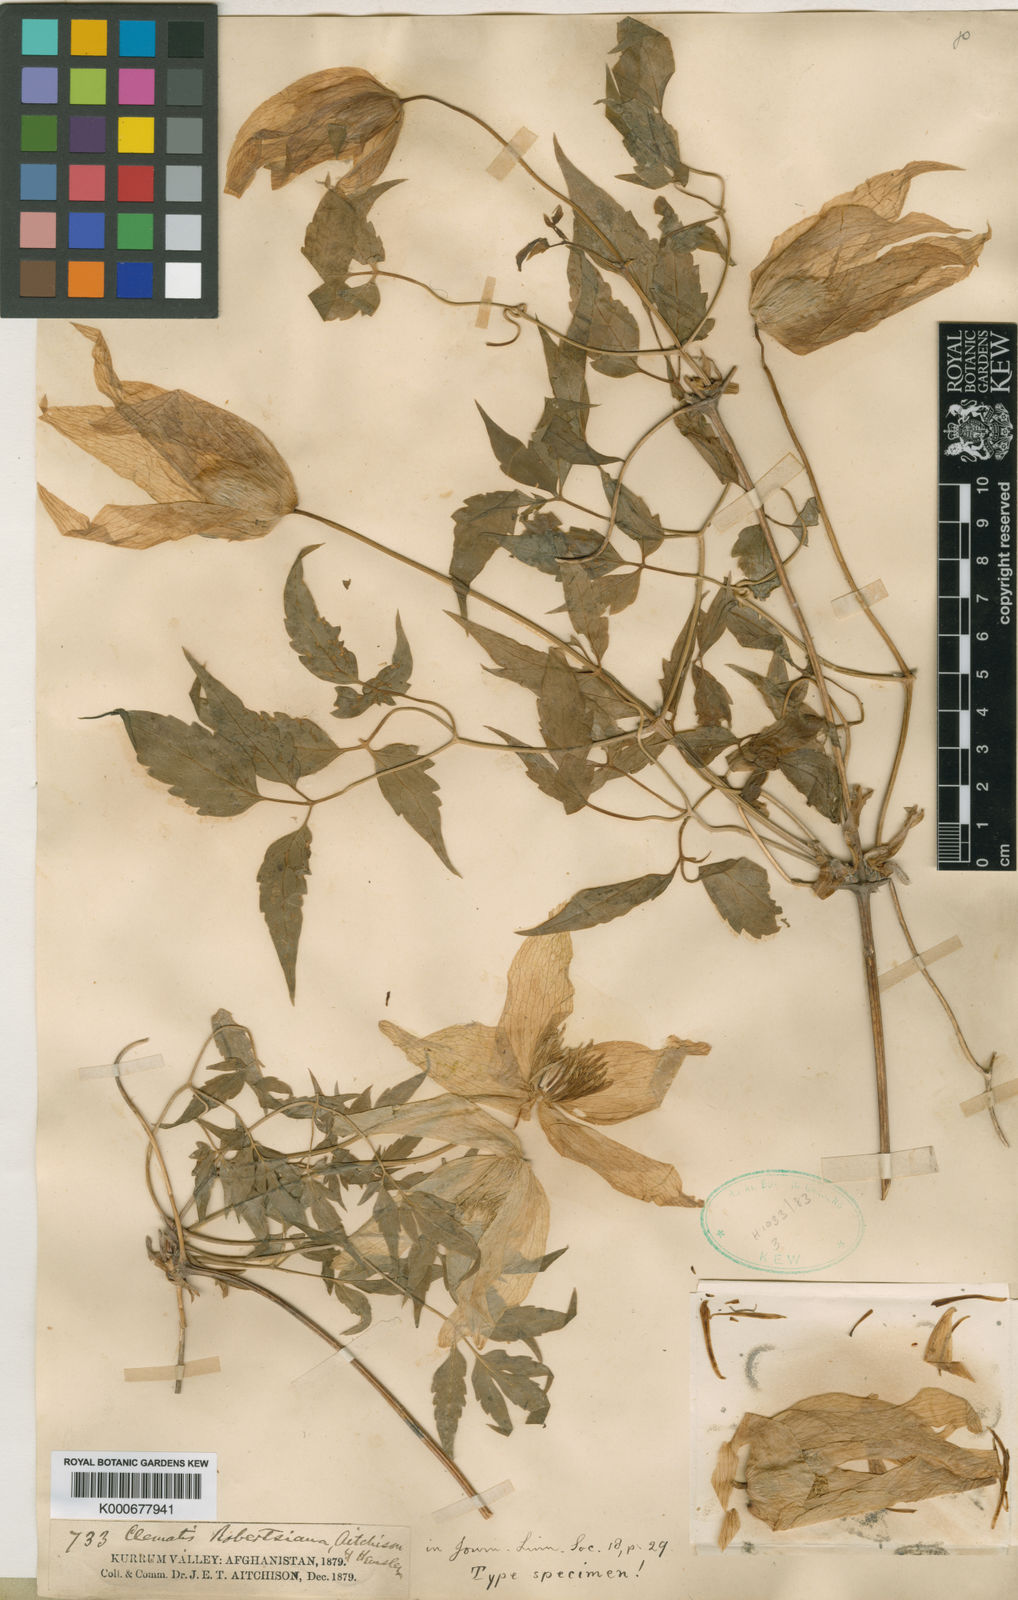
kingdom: Plantae
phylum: Tracheophyta
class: Magnoliopsida
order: Ranunculales
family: Ranunculaceae
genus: Clematis
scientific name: Clematis robertsiana
